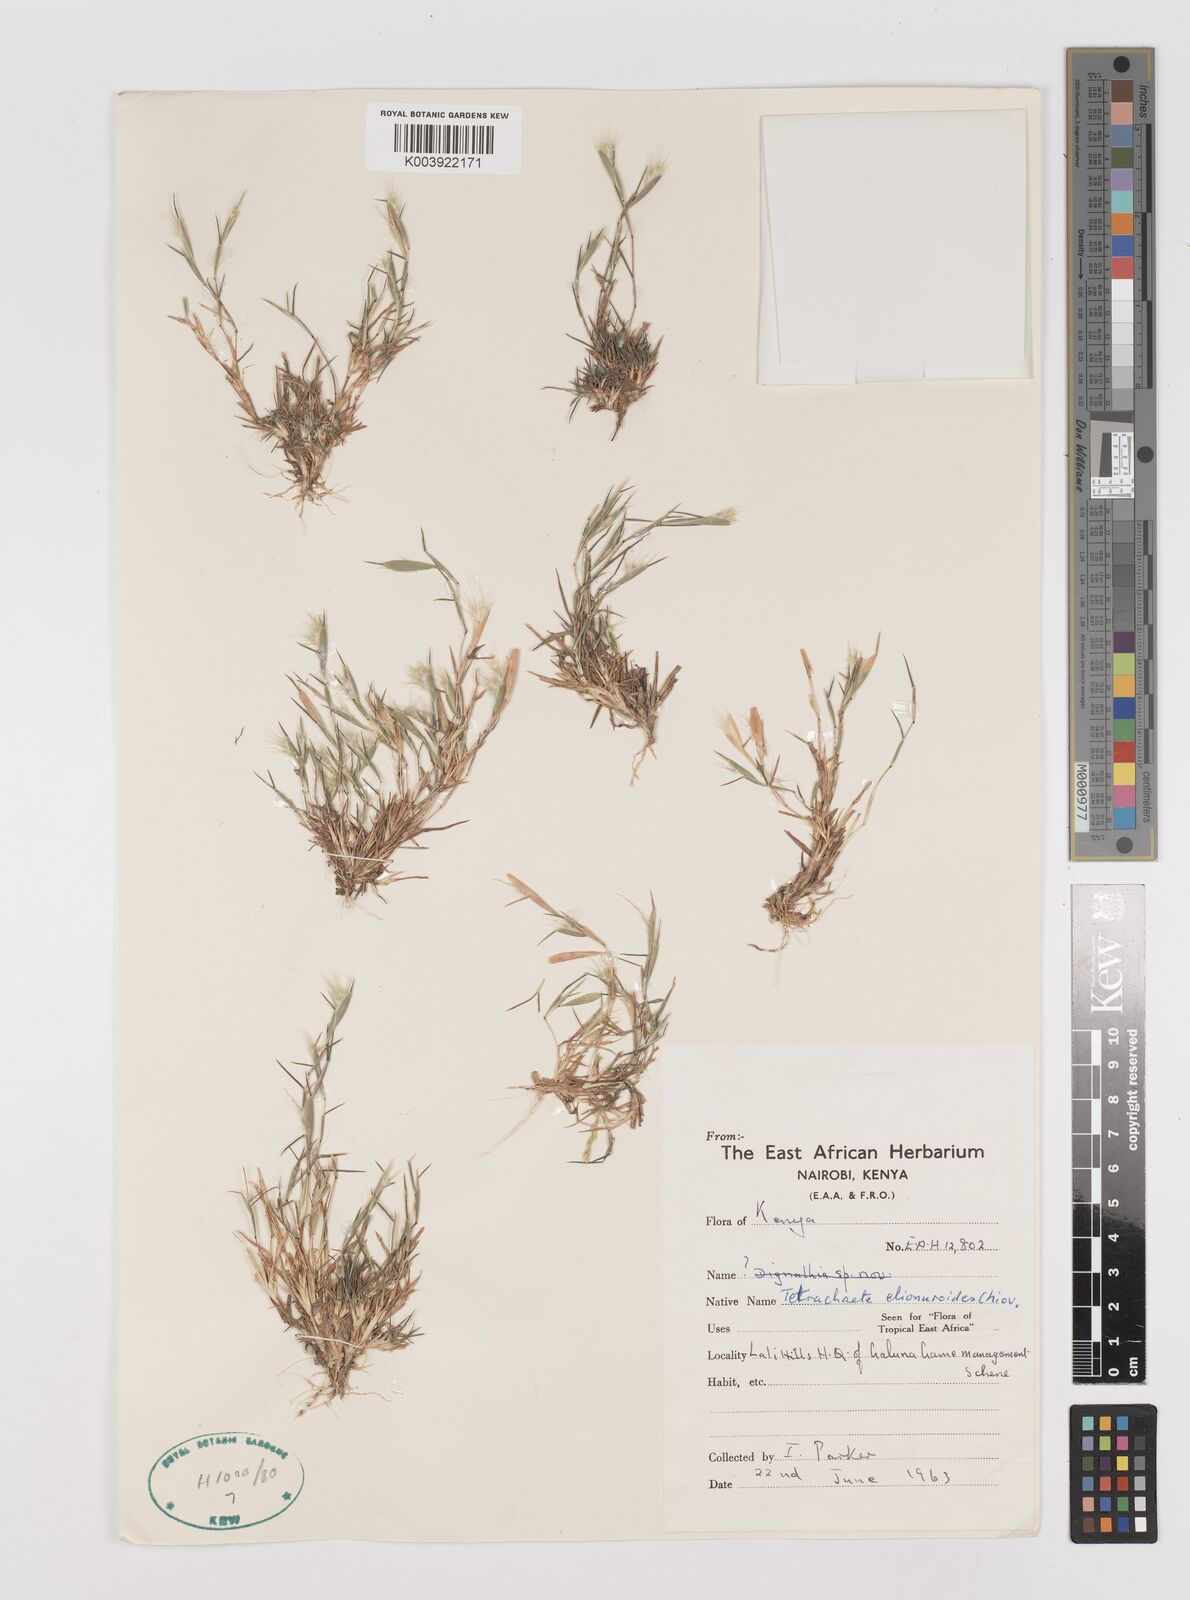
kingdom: Plantae
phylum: Tracheophyta
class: Liliopsida
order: Poales
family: Poaceae
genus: Tetrachaete
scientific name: Tetrachaete elionuroides
